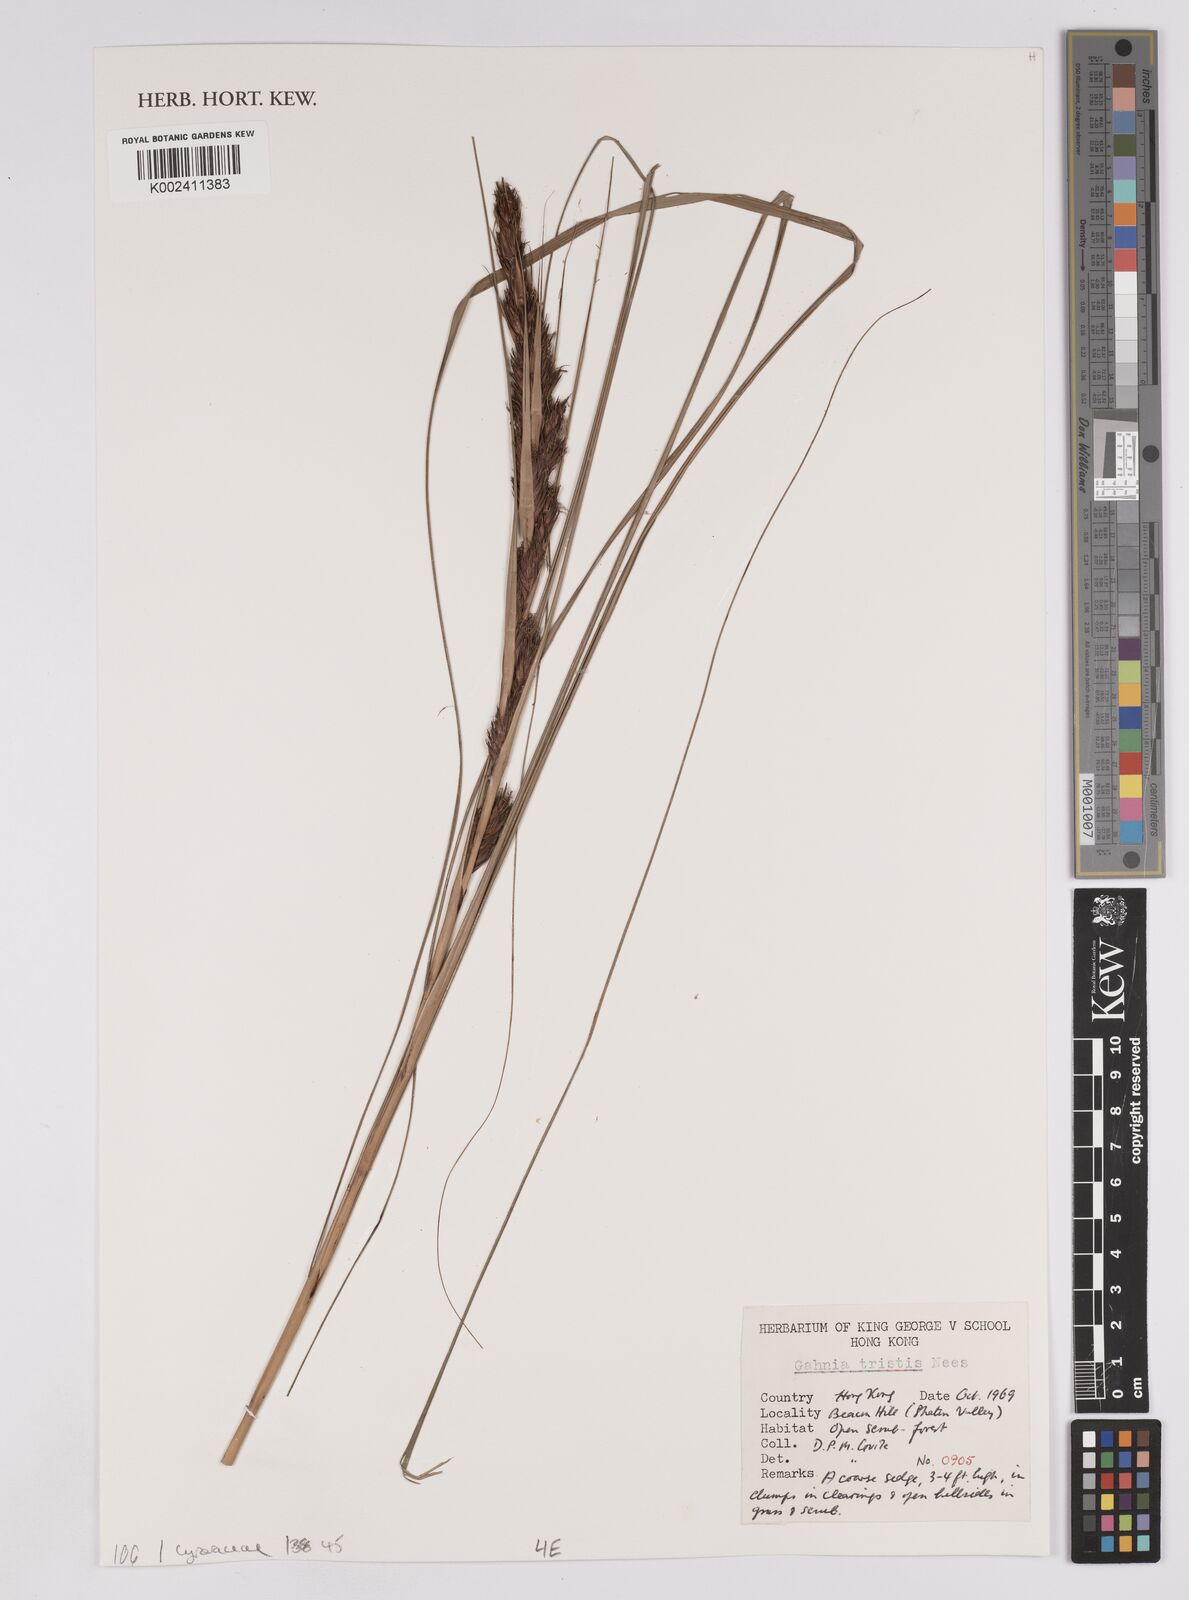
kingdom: Plantae
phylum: Tracheophyta
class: Liliopsida
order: Poales
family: Cyperaceae
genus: Gahnia
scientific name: Gahnia tristis
